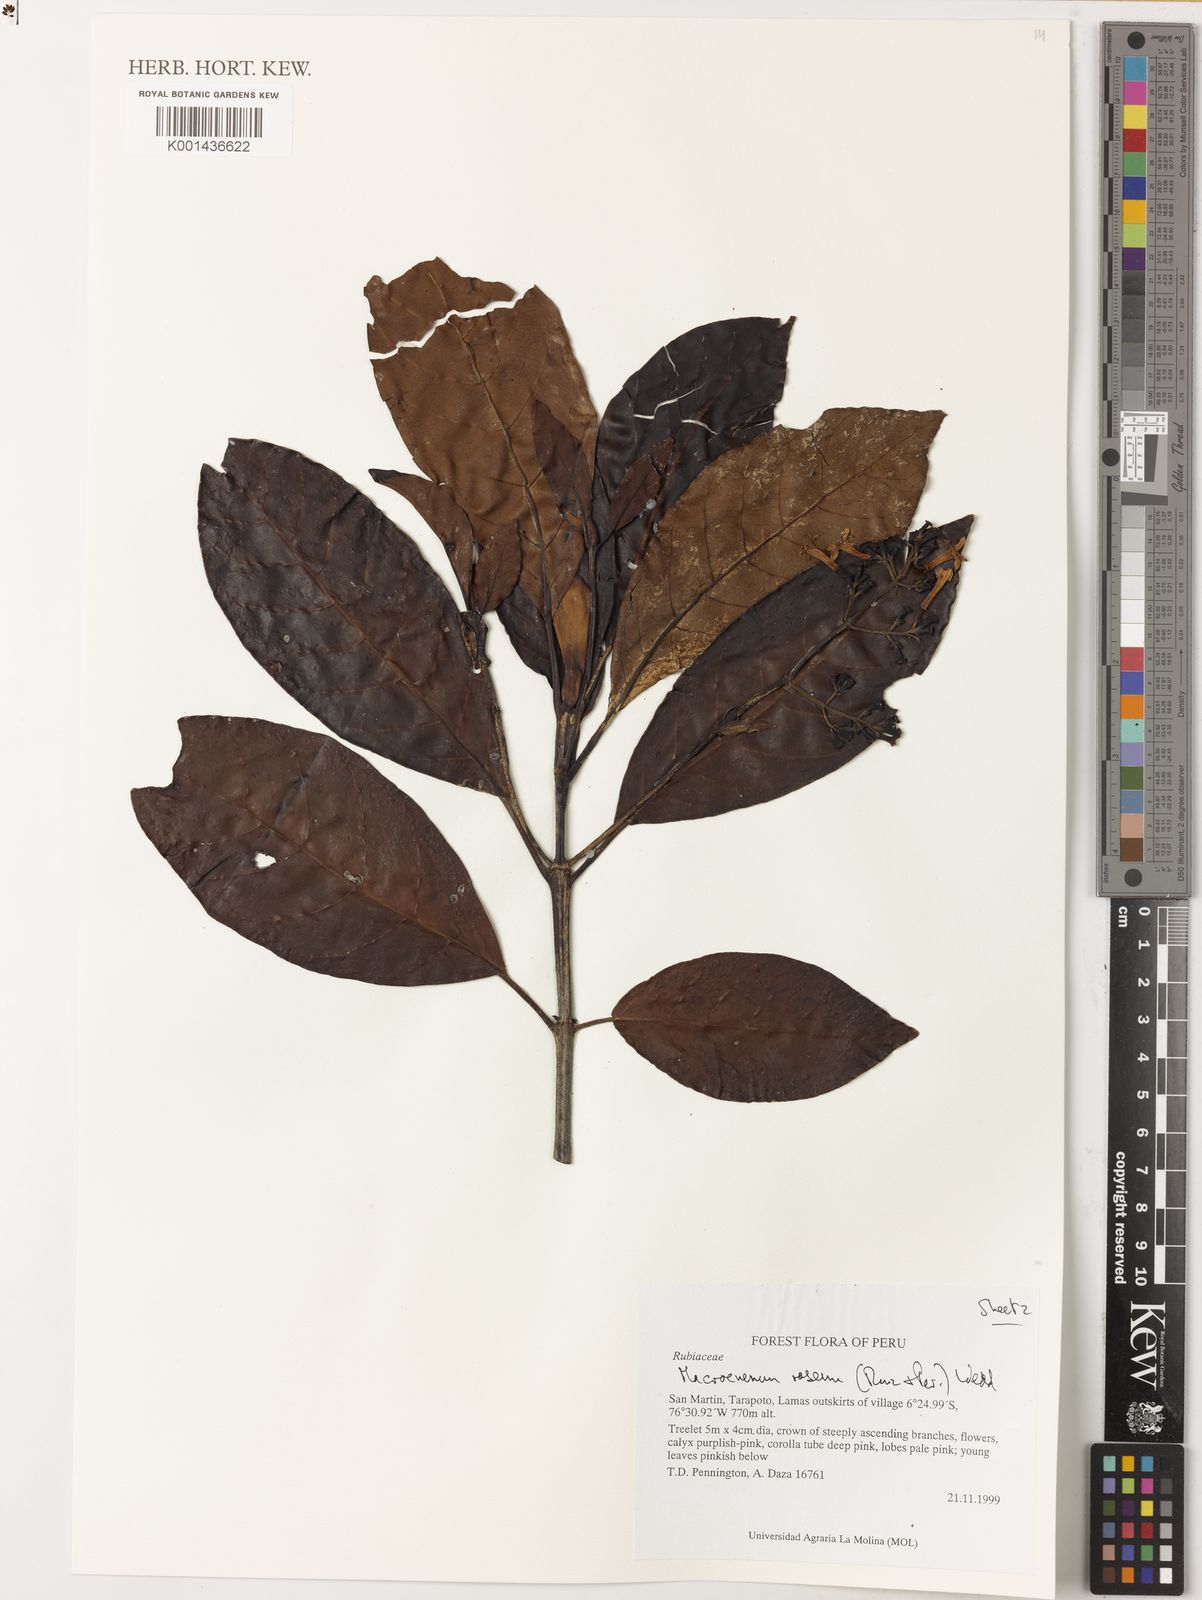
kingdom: Plantae
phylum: Tracheophyta
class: Magnoliopsida
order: Gentianales
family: Rubiaceae
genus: Macrocnemum
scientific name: Macrocnemum roseum
